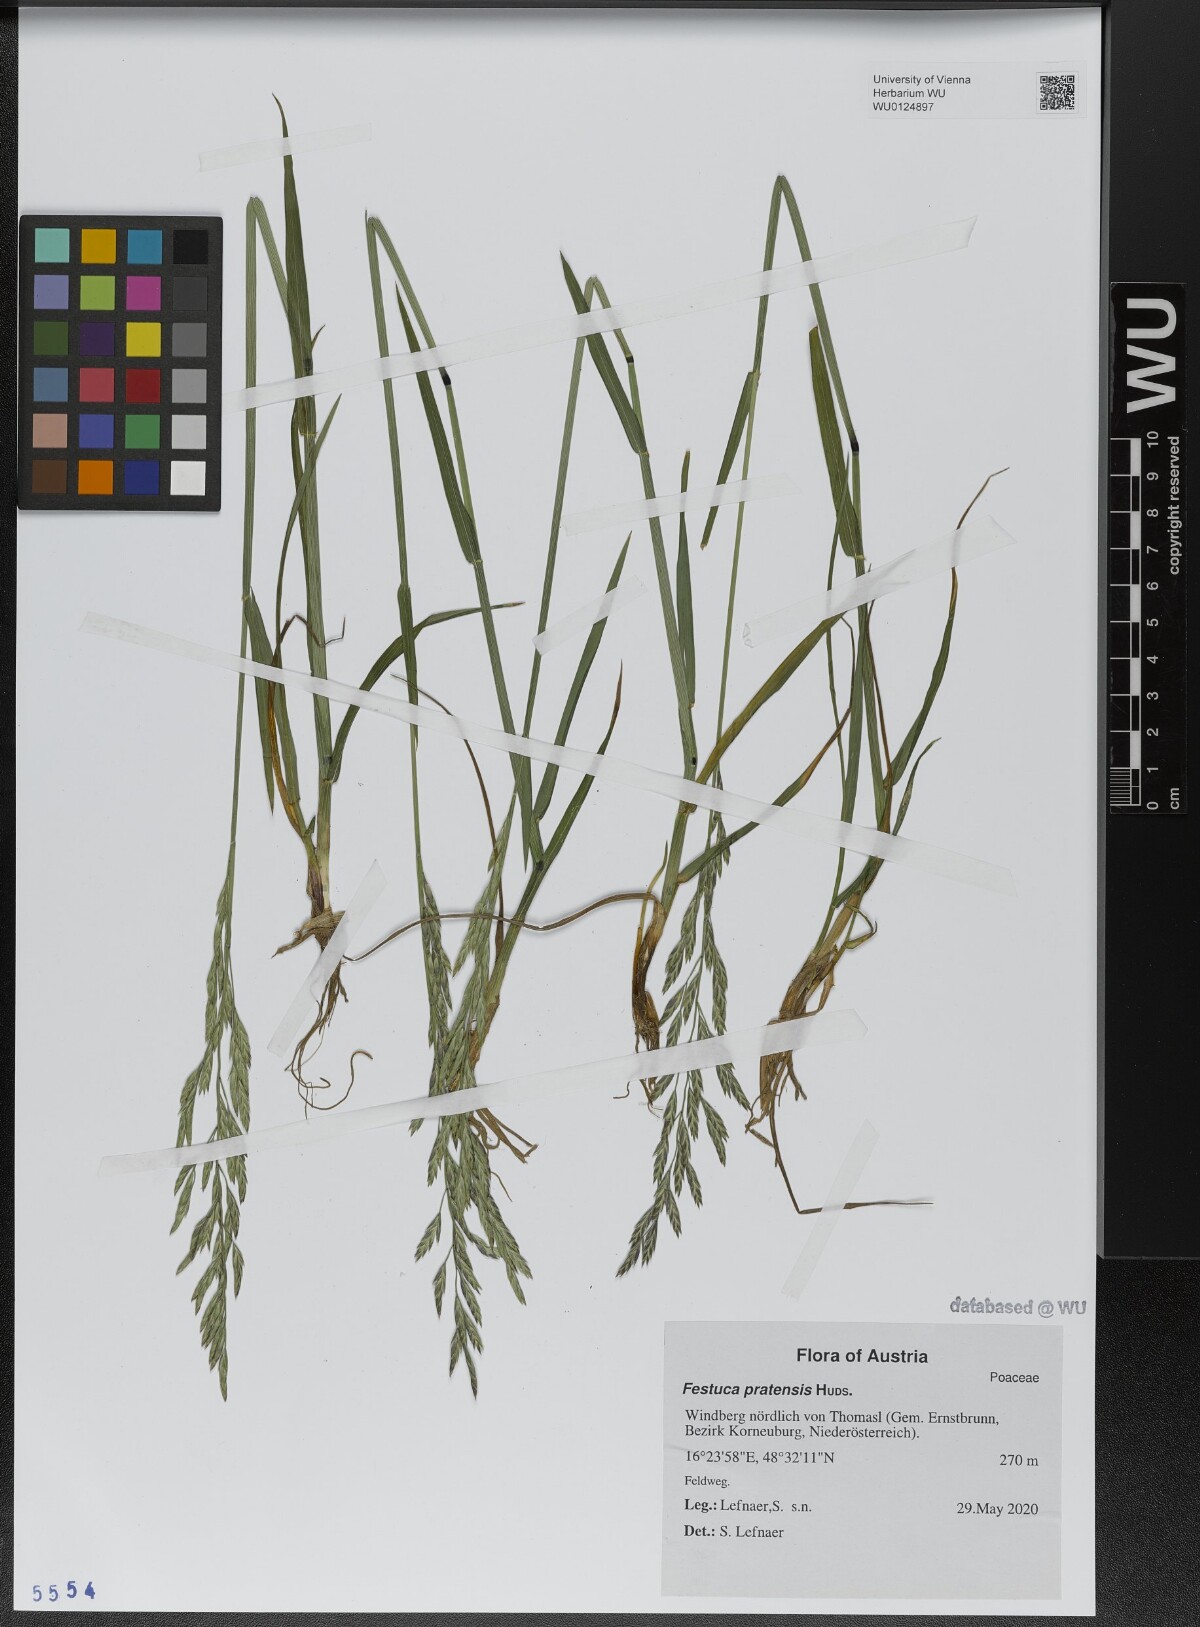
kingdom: Plantae
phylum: Tracheophyta
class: Liliopsida
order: Poales
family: Poaceae
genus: Lolium
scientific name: Lolium pratense
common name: Dover grass
